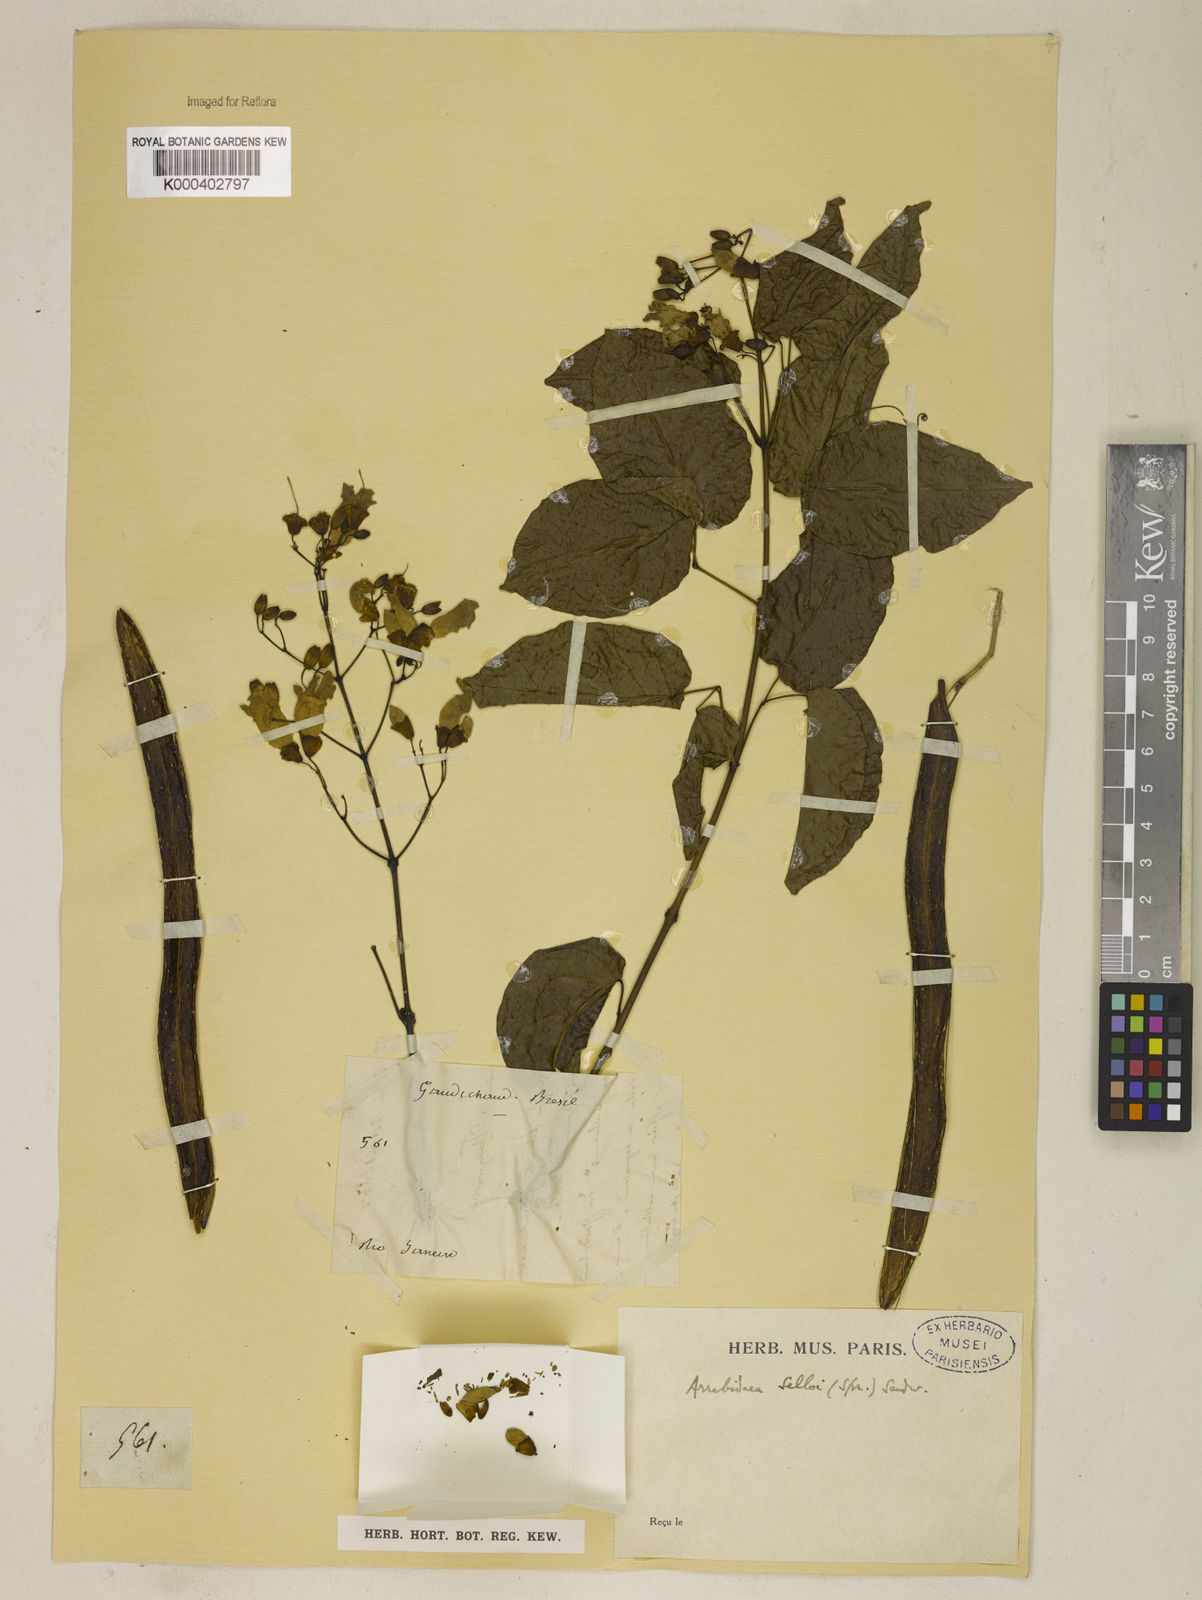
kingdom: Plantae
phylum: Tracheophyta
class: Magnoliopsida
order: Lamiales
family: Bignoniaceae
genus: Tanaecium
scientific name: Tanaecium selloi
